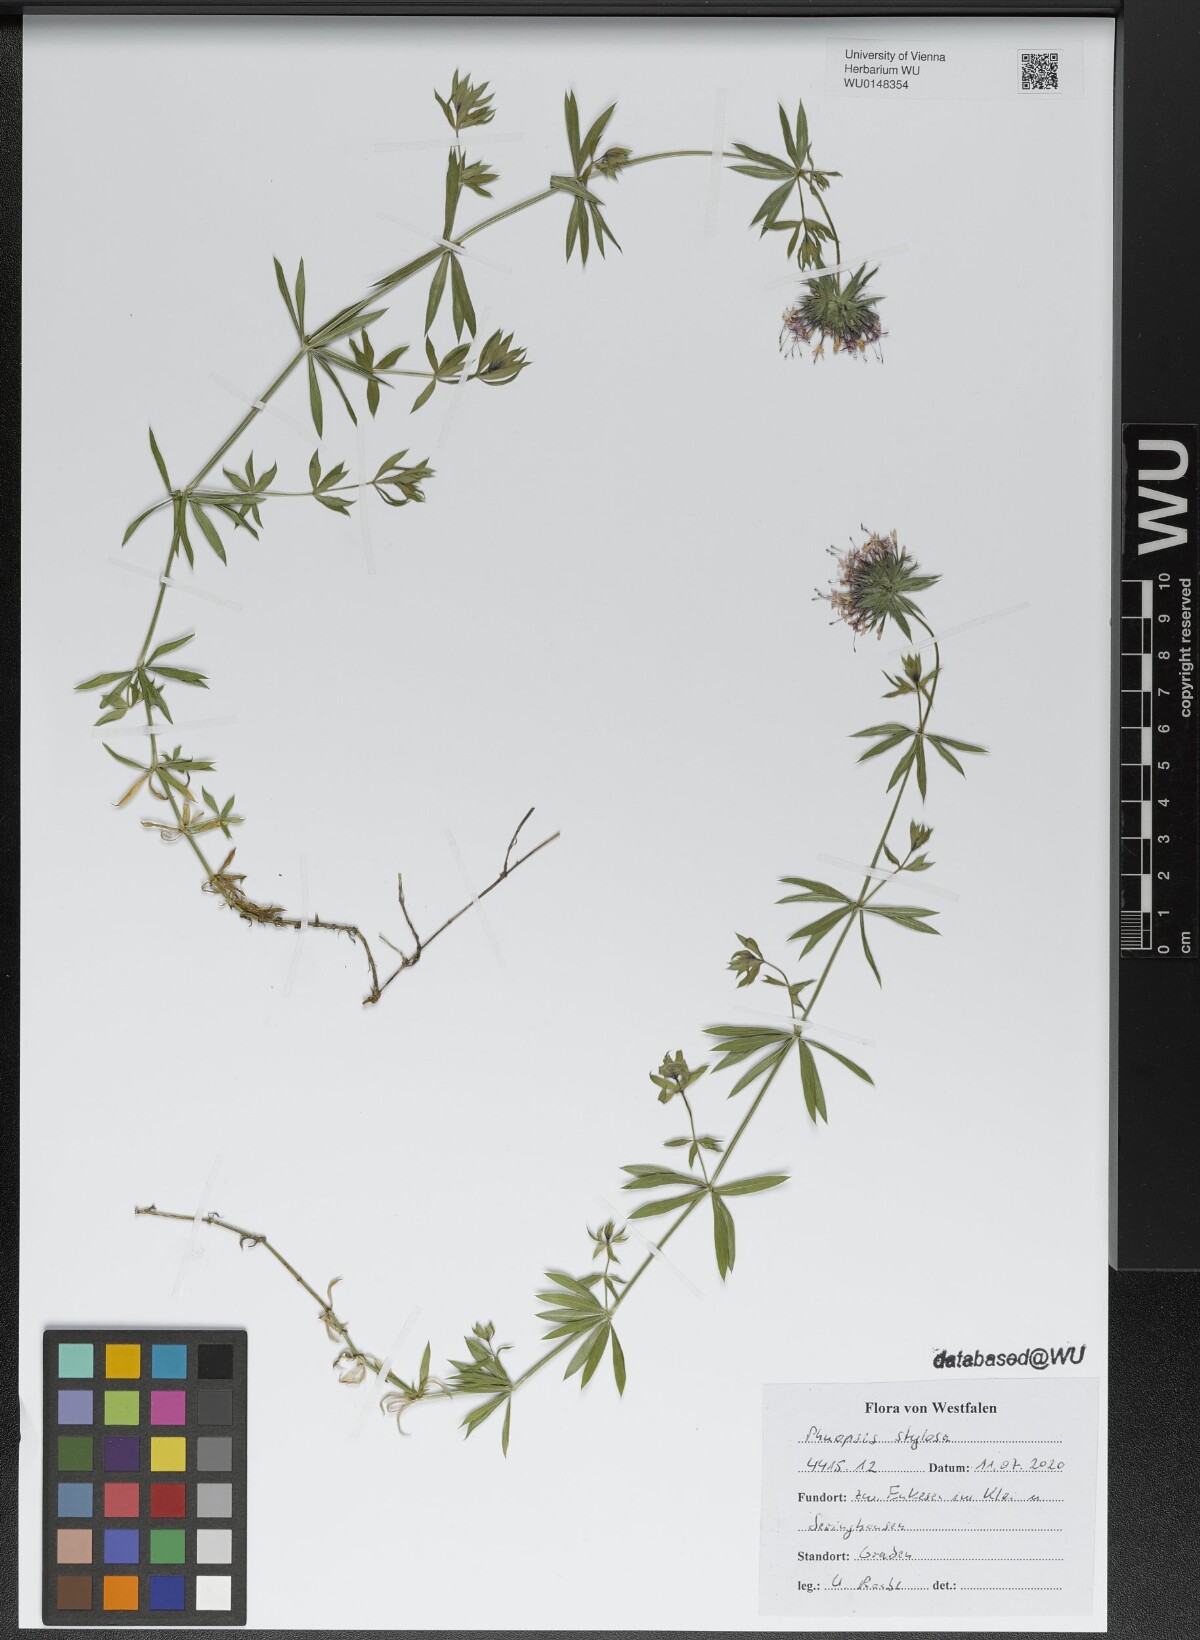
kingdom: Plantae
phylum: Tracheophyta
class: Magnoliopsida
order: Gentianales
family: Rubiaceae
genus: Phuopsis
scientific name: Phuopsis stylosa
